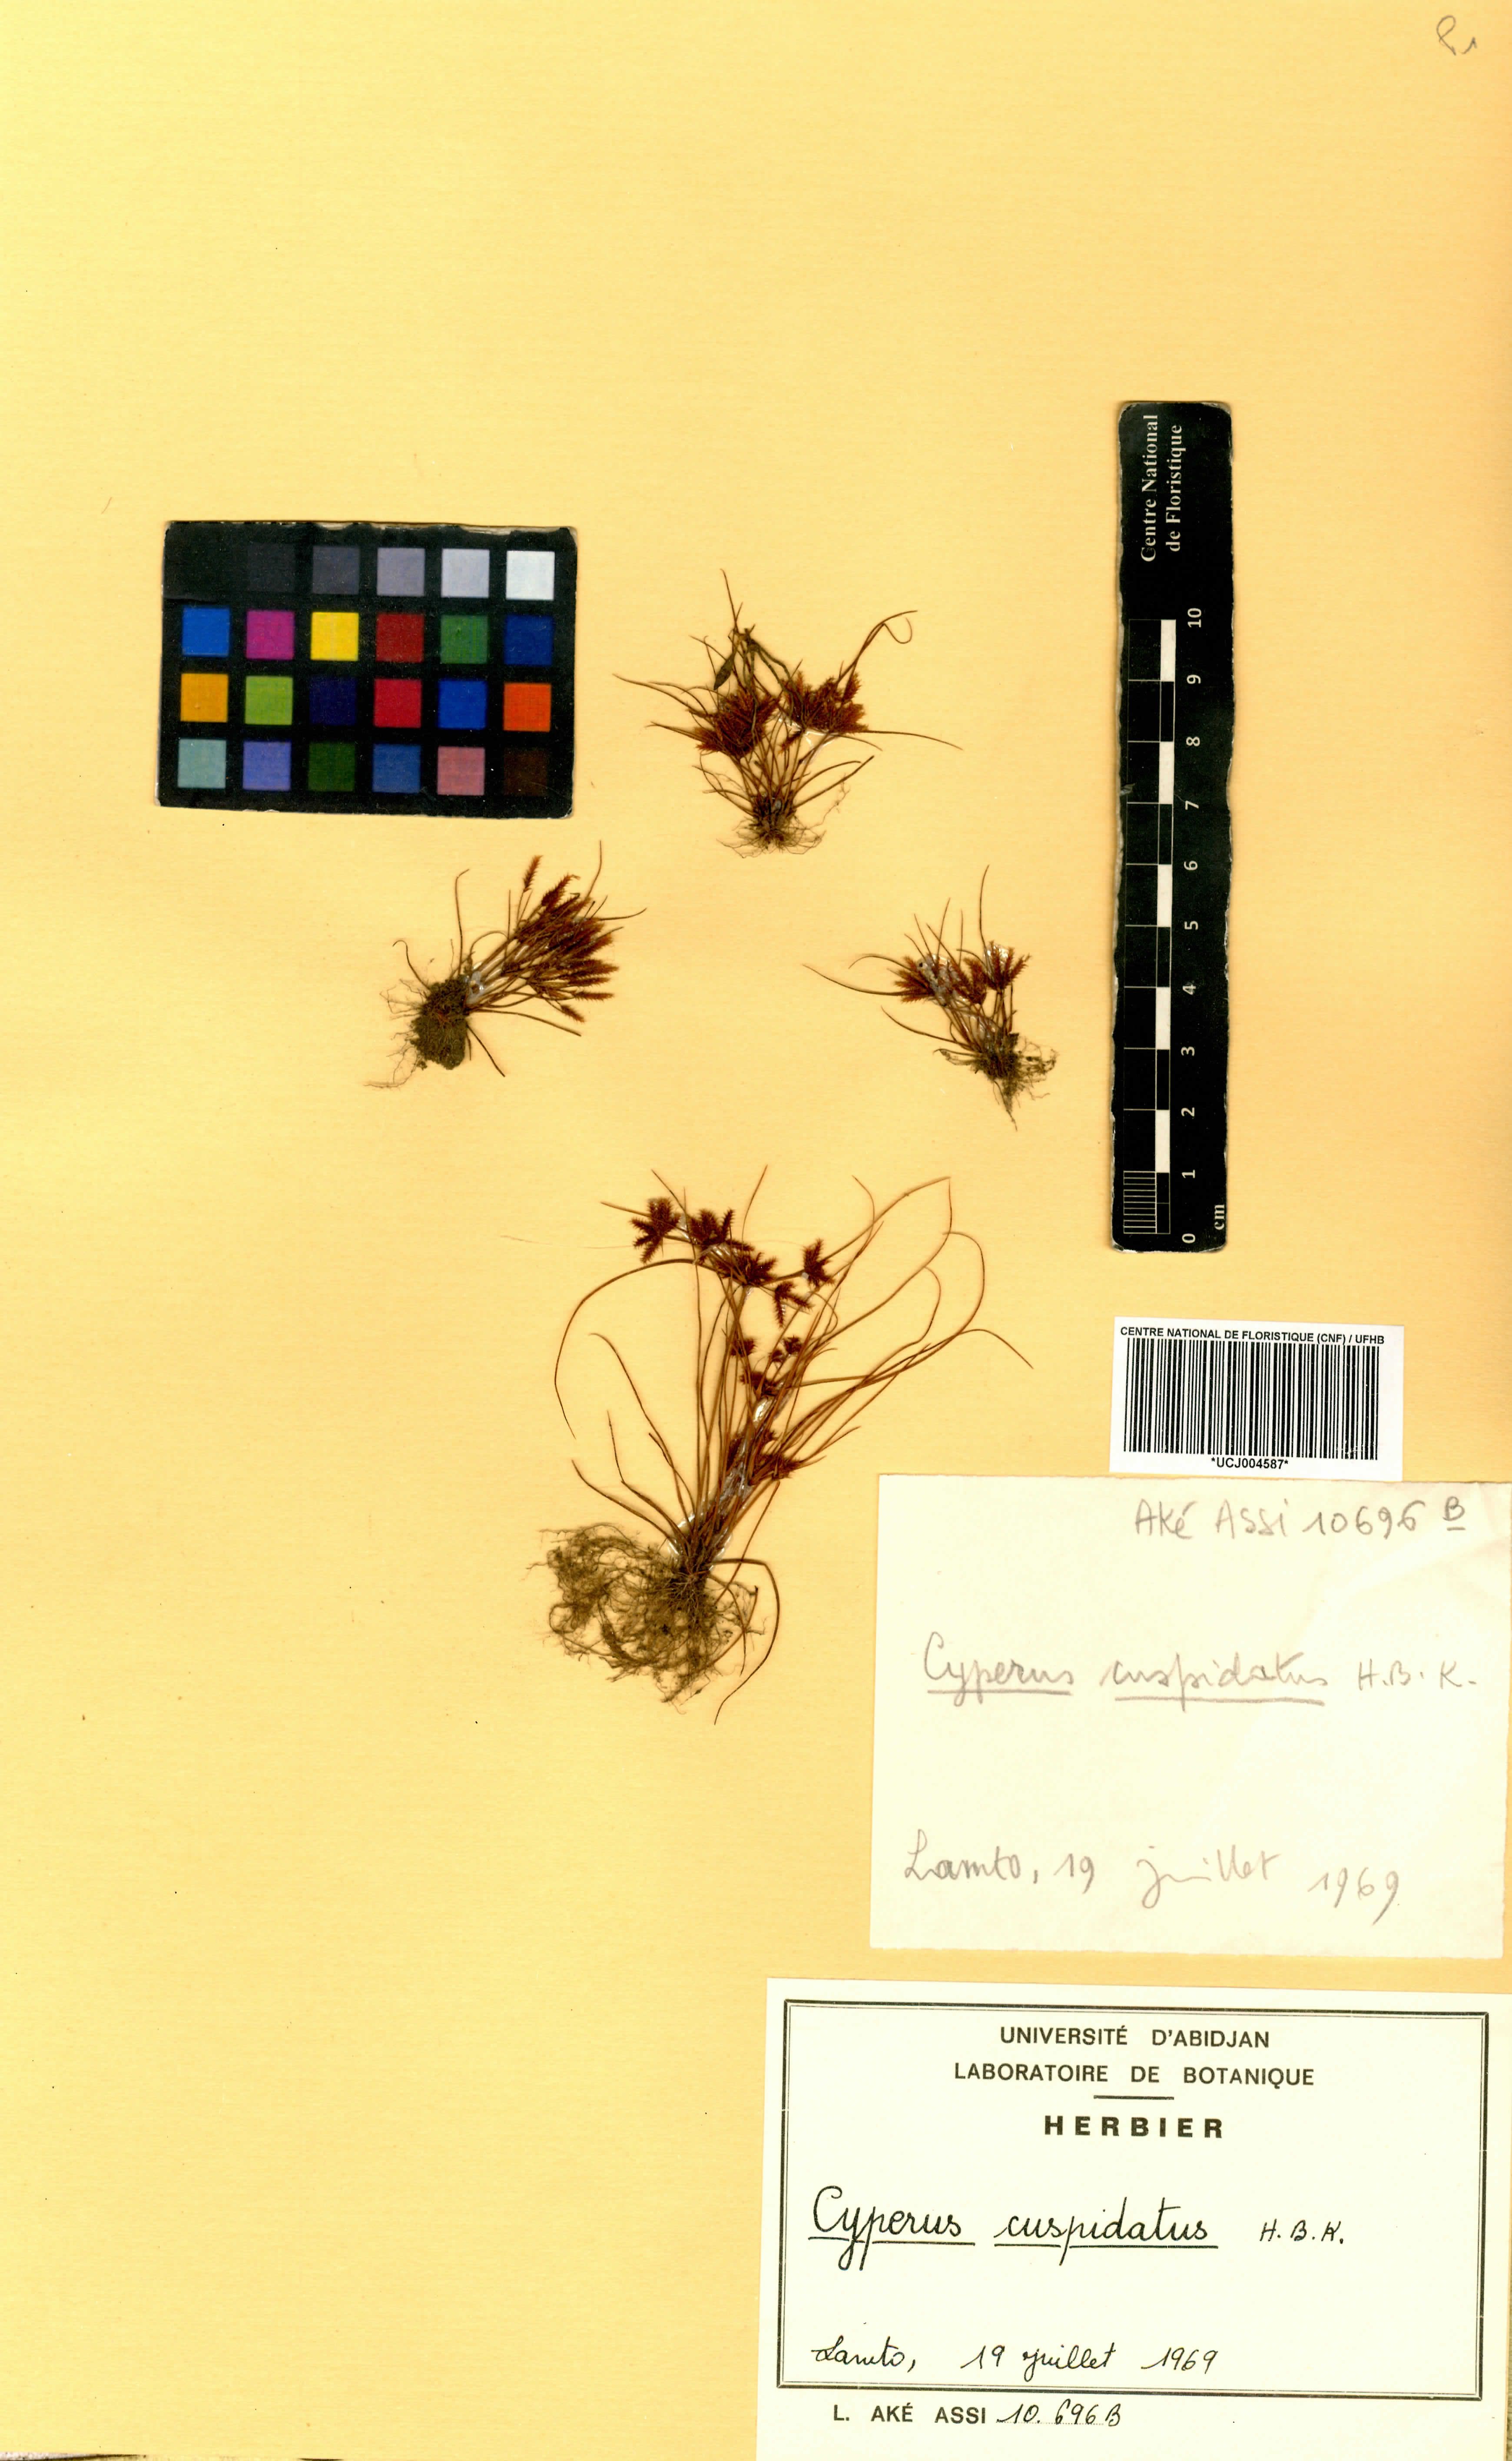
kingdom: Plantae
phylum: Tracheophyta
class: Liliopsida
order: Poales
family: Cyperaceae
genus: Cyperus
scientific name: Cyperus cuspidatus
